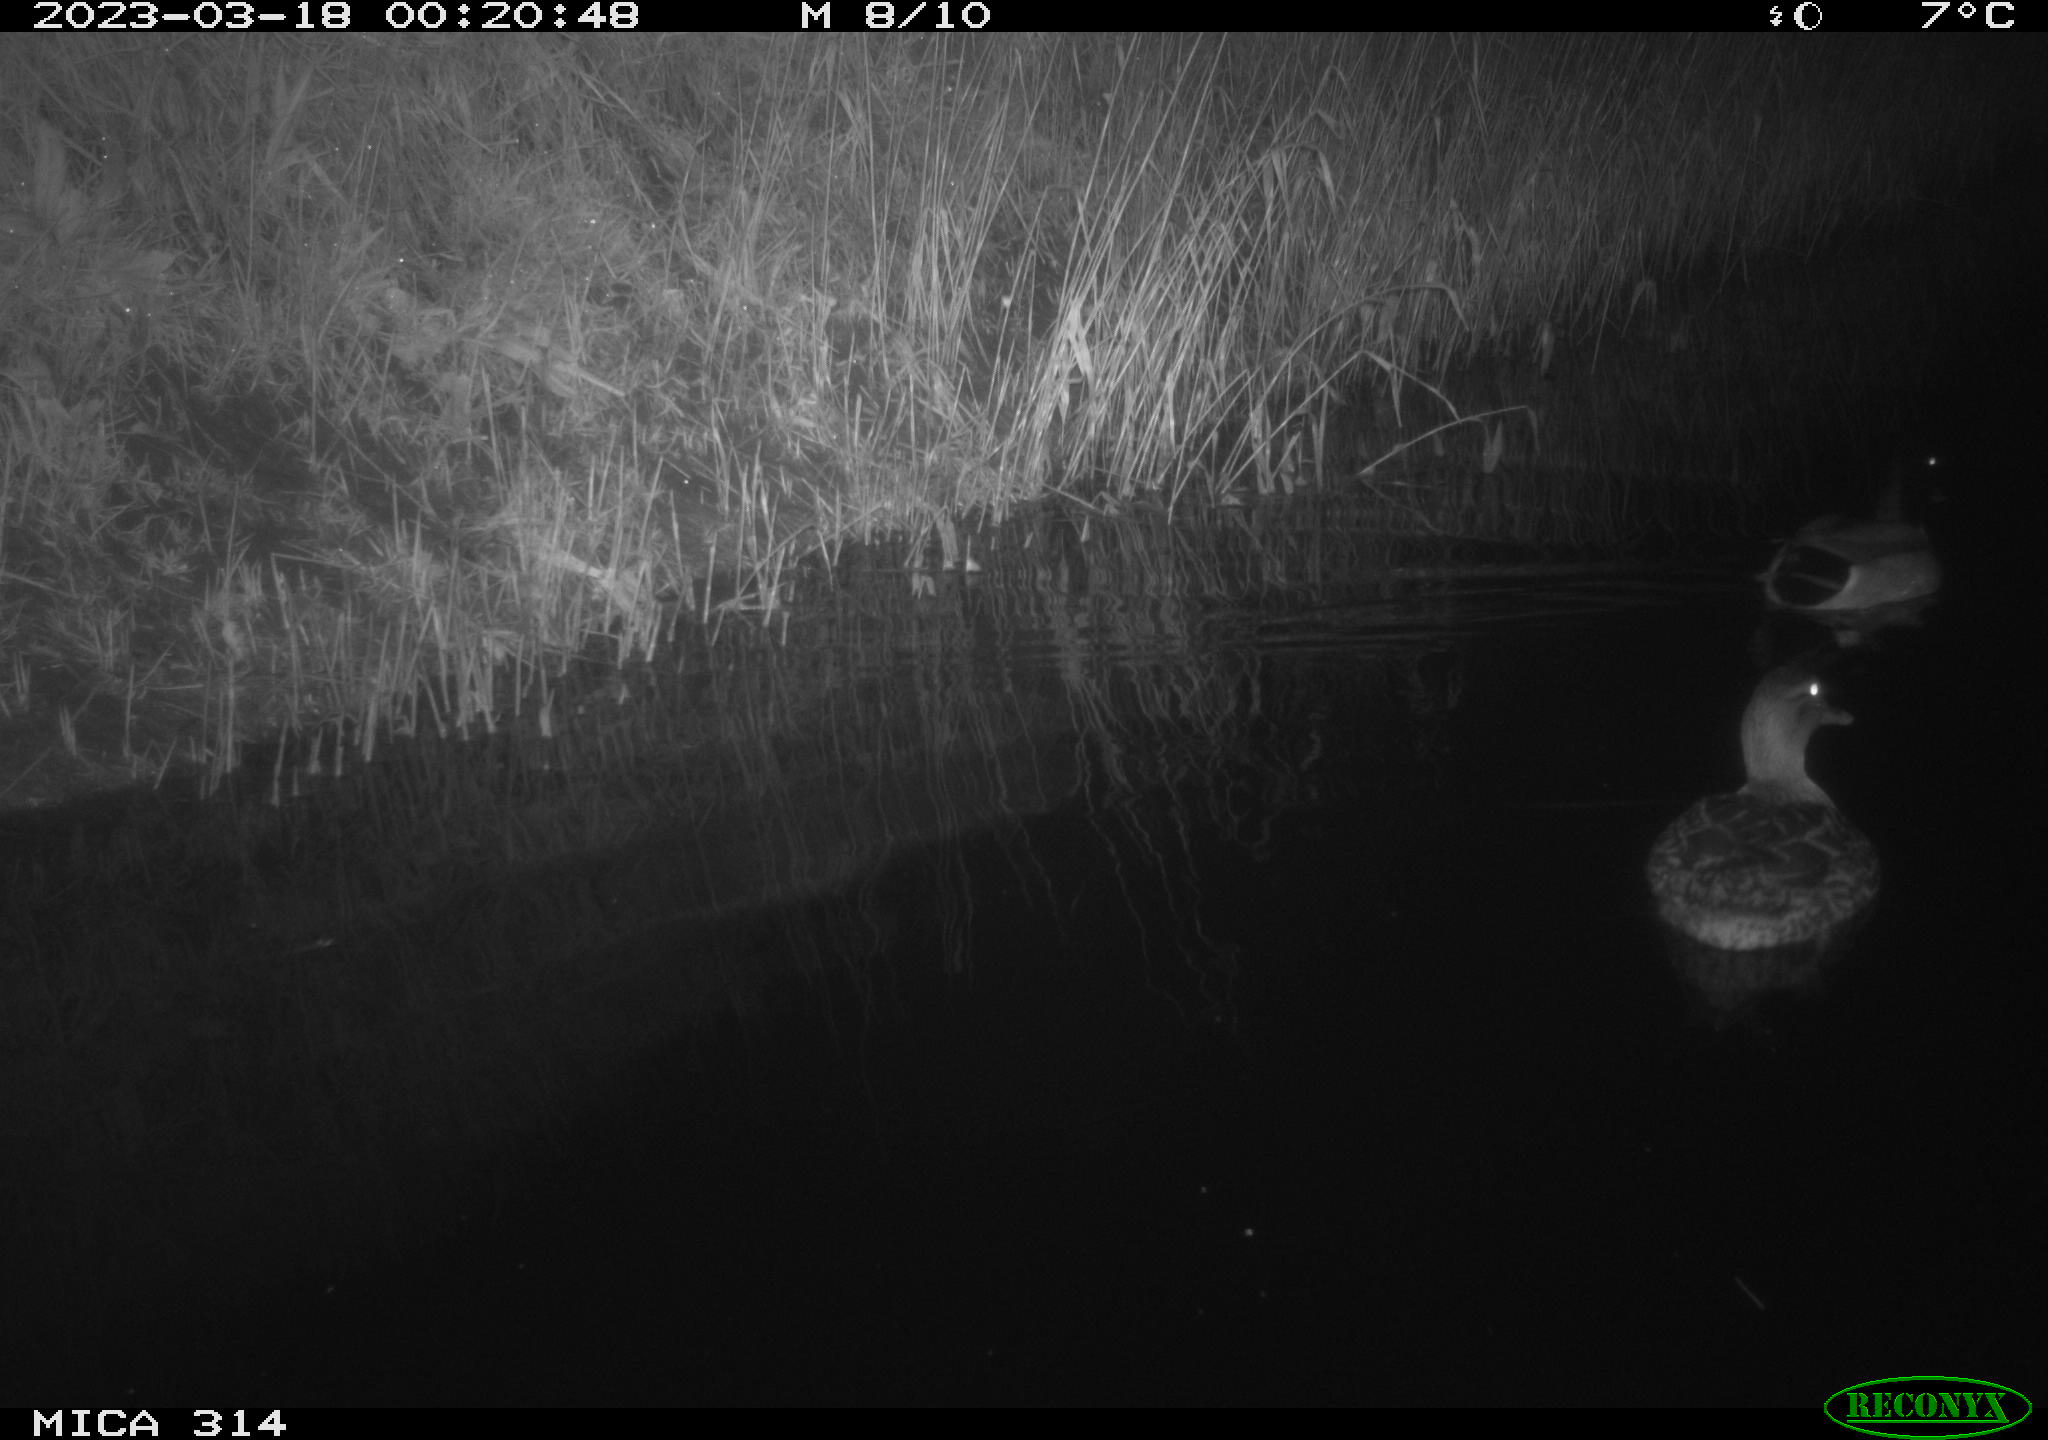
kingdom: Animalia
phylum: Chordata
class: Aves
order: Anseriformes
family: Anatidae
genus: Anas
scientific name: Anas
